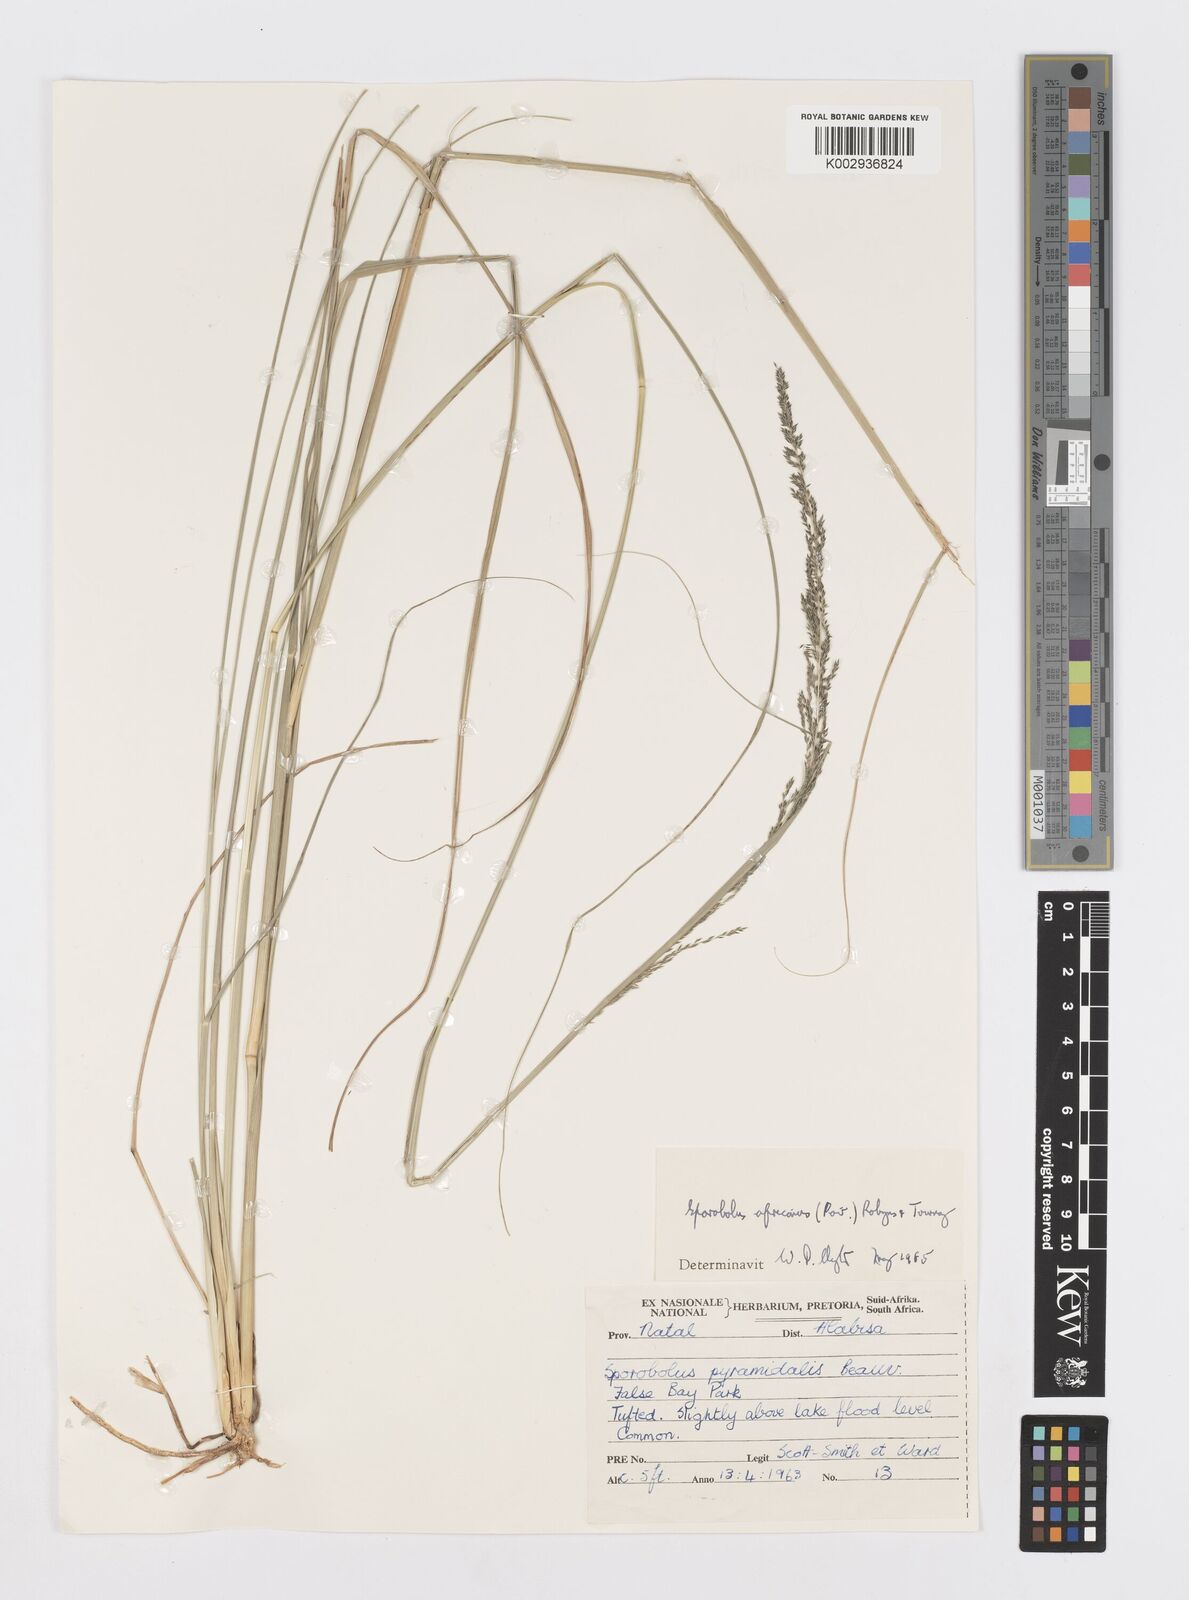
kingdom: Plantae
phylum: Tracheophyta
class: Liliopsida
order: Poales
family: Poaceae
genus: Sporobolus
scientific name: Sporobolus africanus
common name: African dropseed
